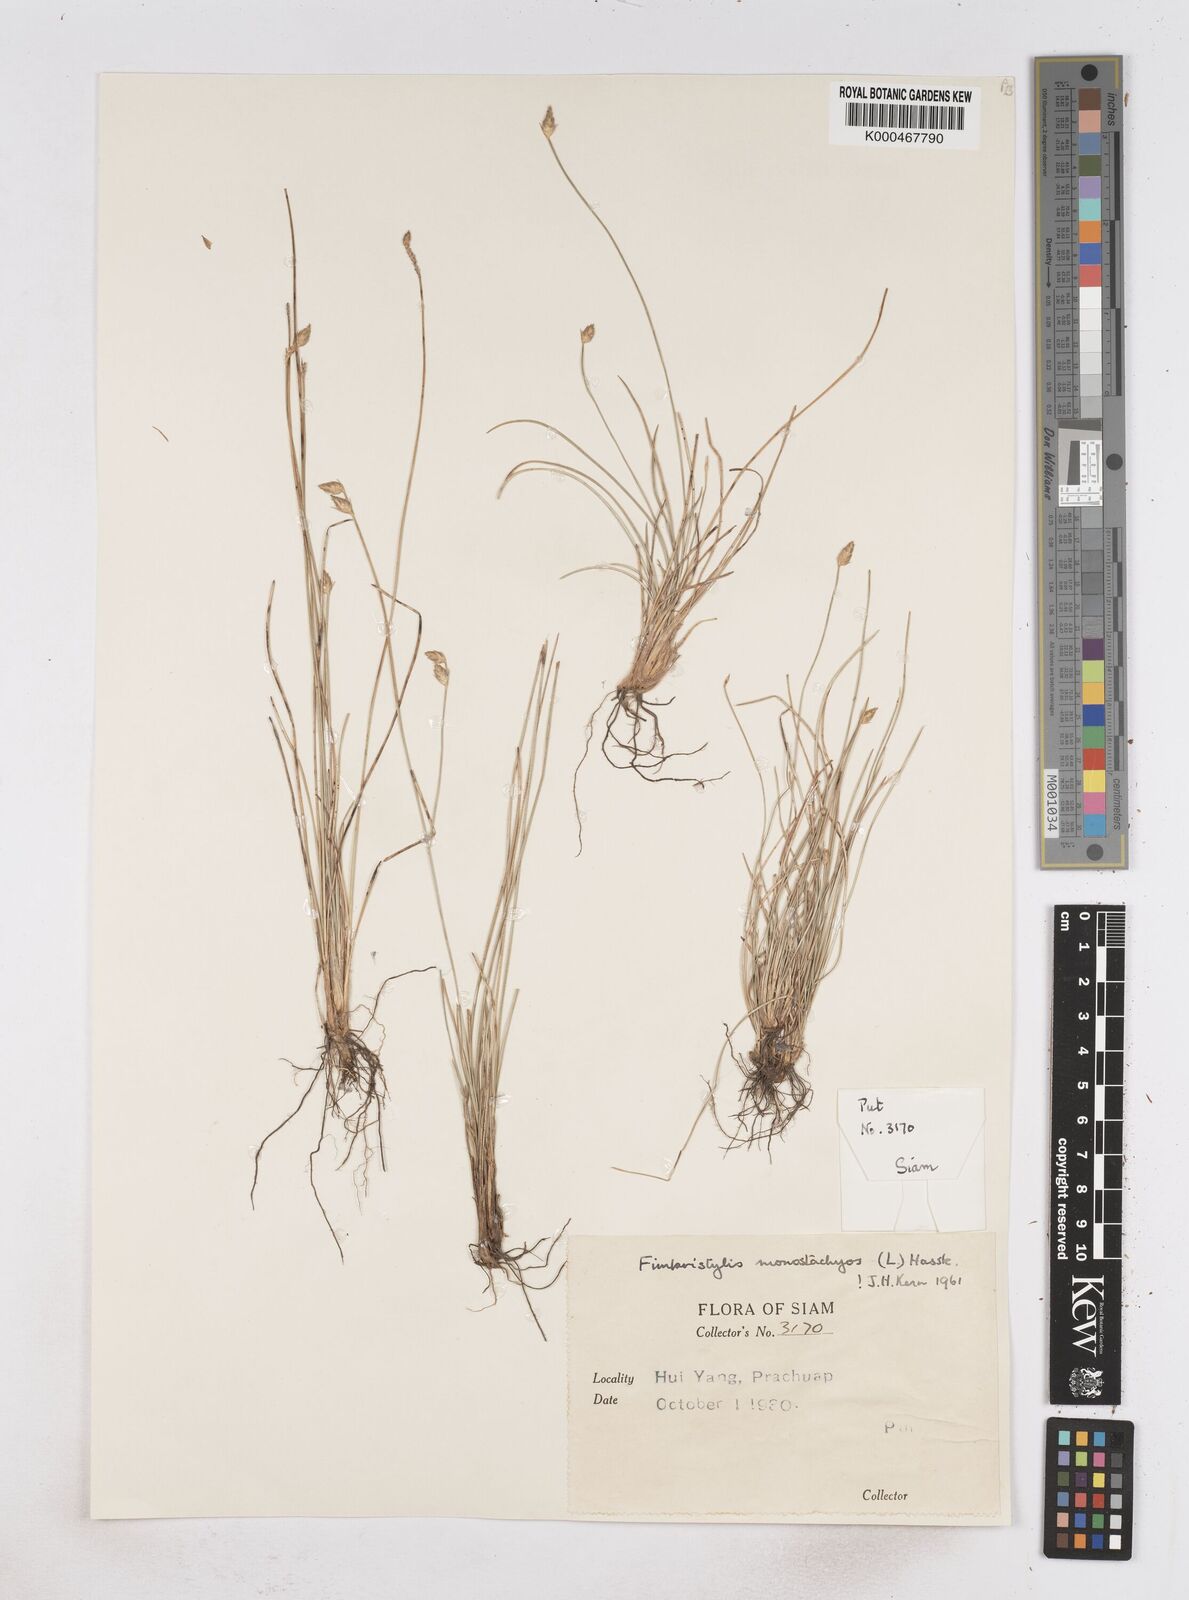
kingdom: Plantae
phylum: Tracheophyta
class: Liliopsida
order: Poales
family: Cyperaceae
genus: Abildgaardia
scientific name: Abildgaardia ovata
